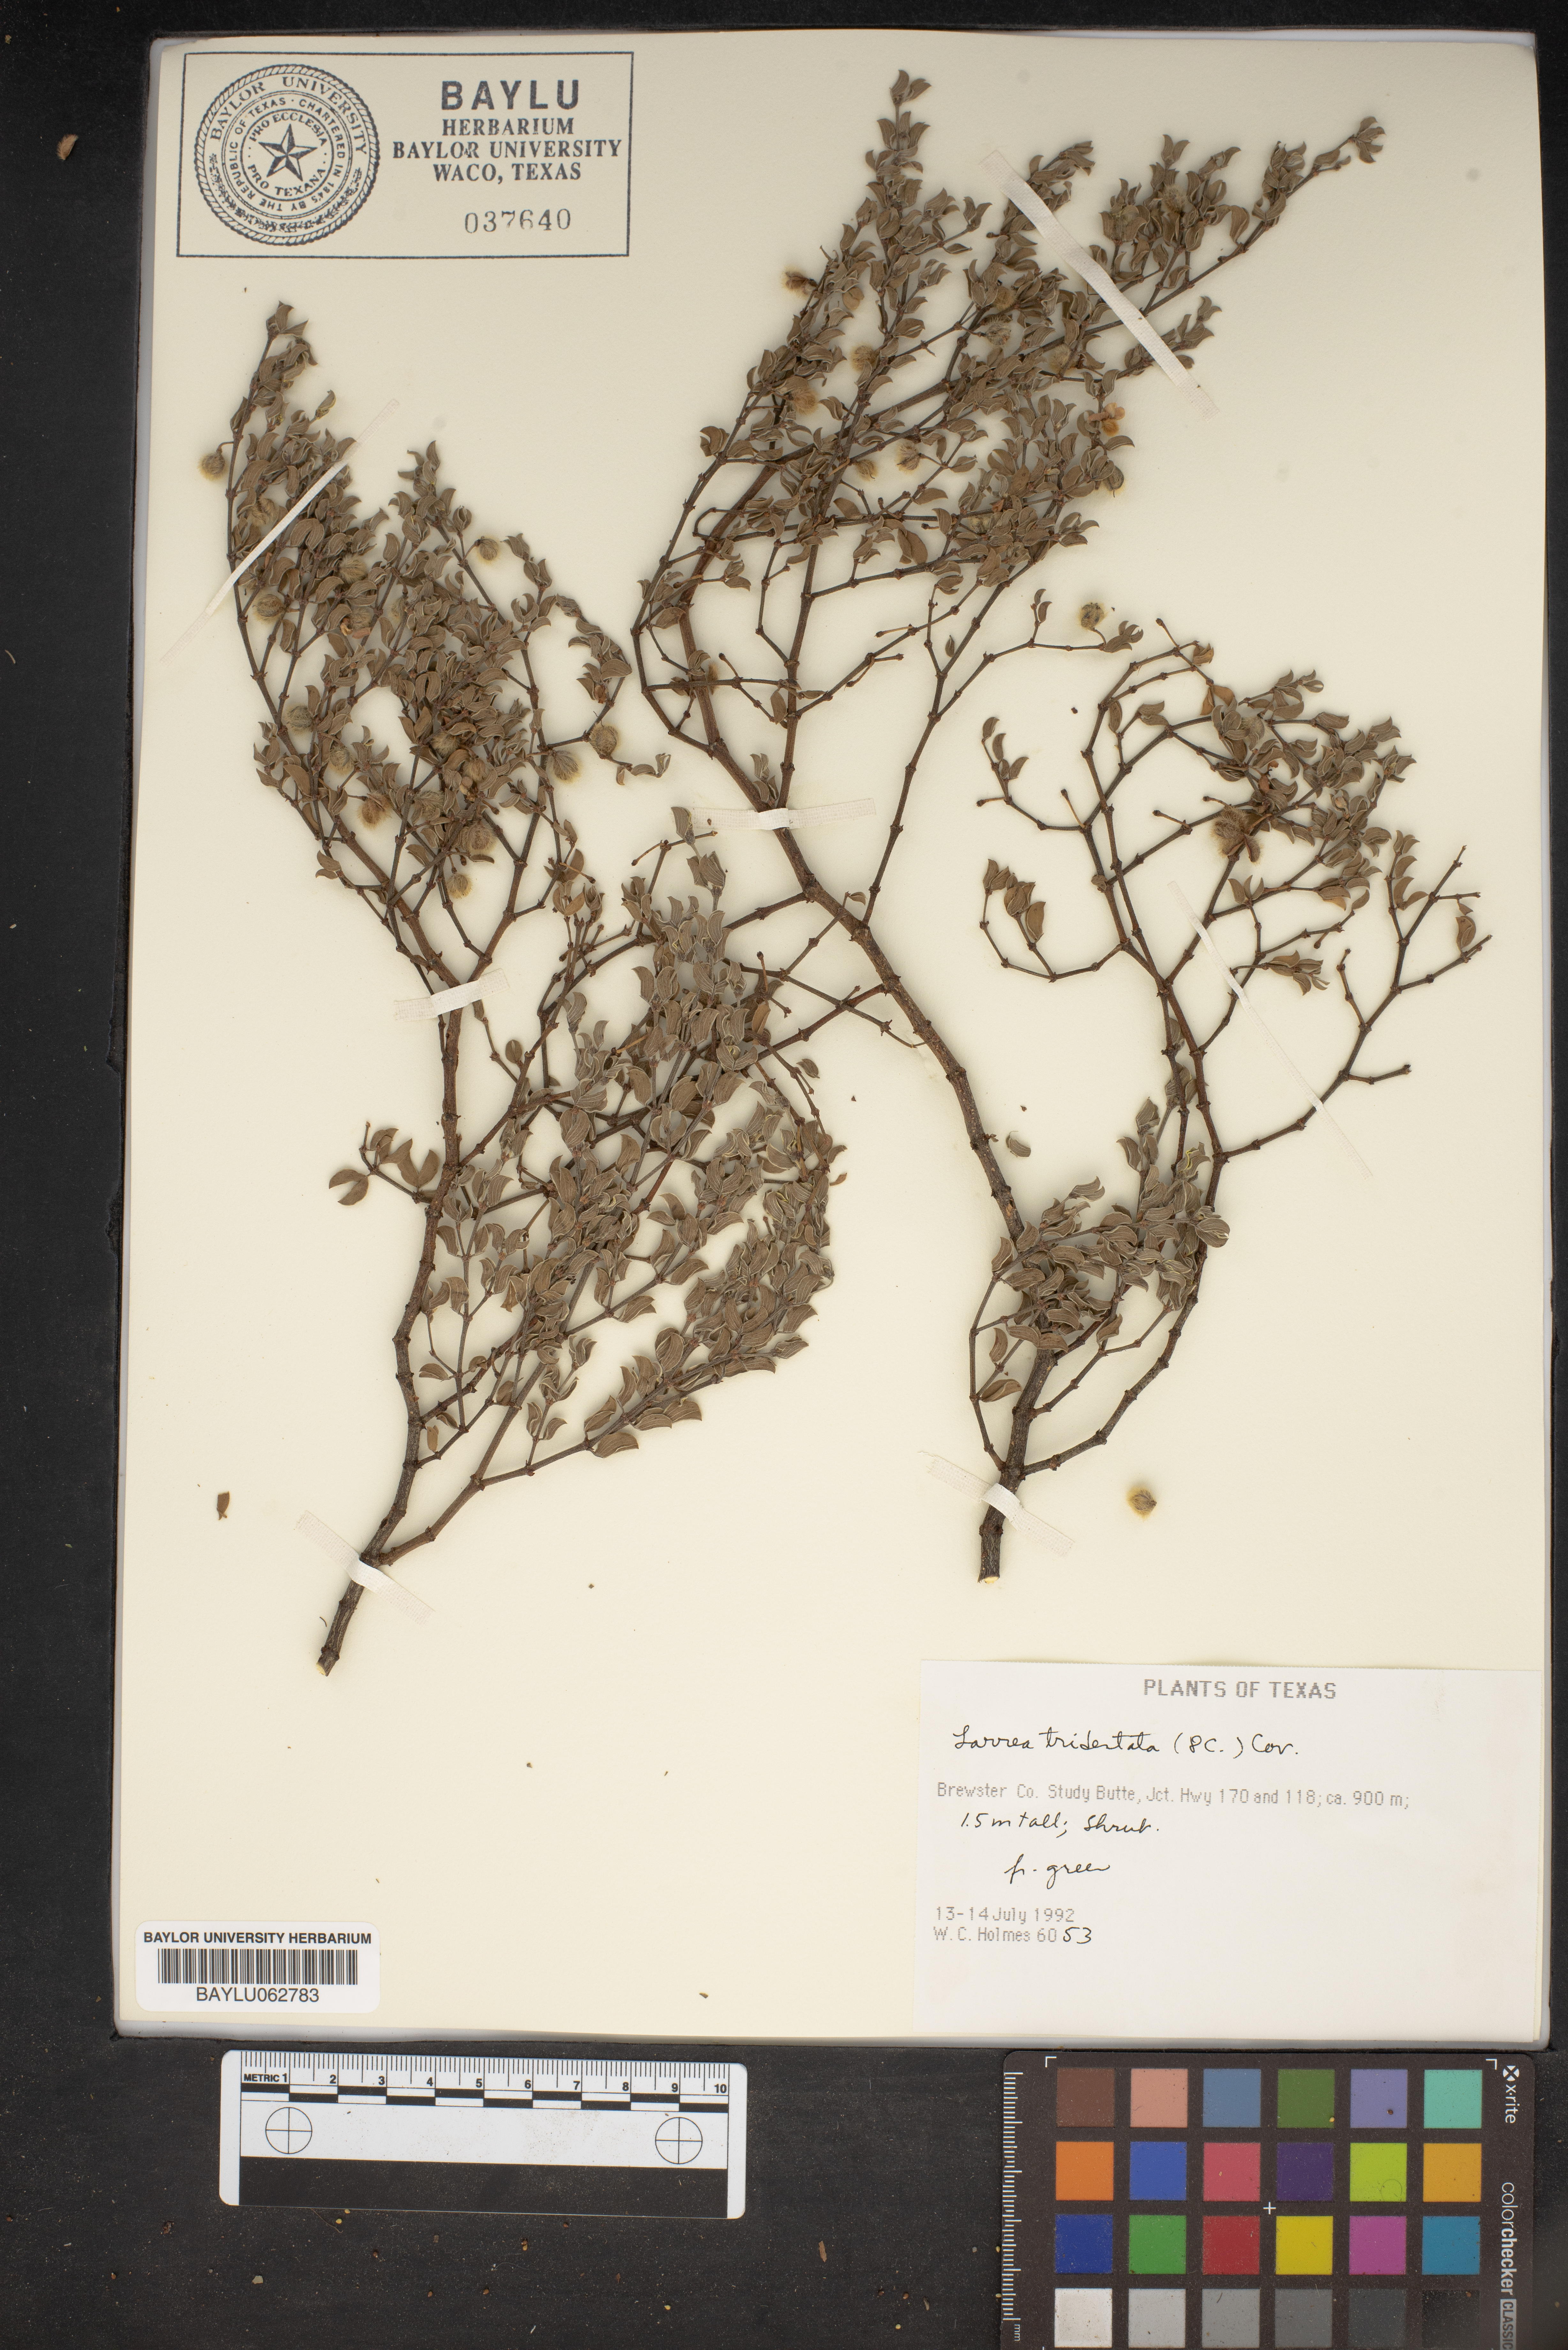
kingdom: Plantae
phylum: Tracheophyta
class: Magnoliopsida
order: Zygophyllales
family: Zygophyllaceae
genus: Larrea
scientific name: Larrea tridentata
